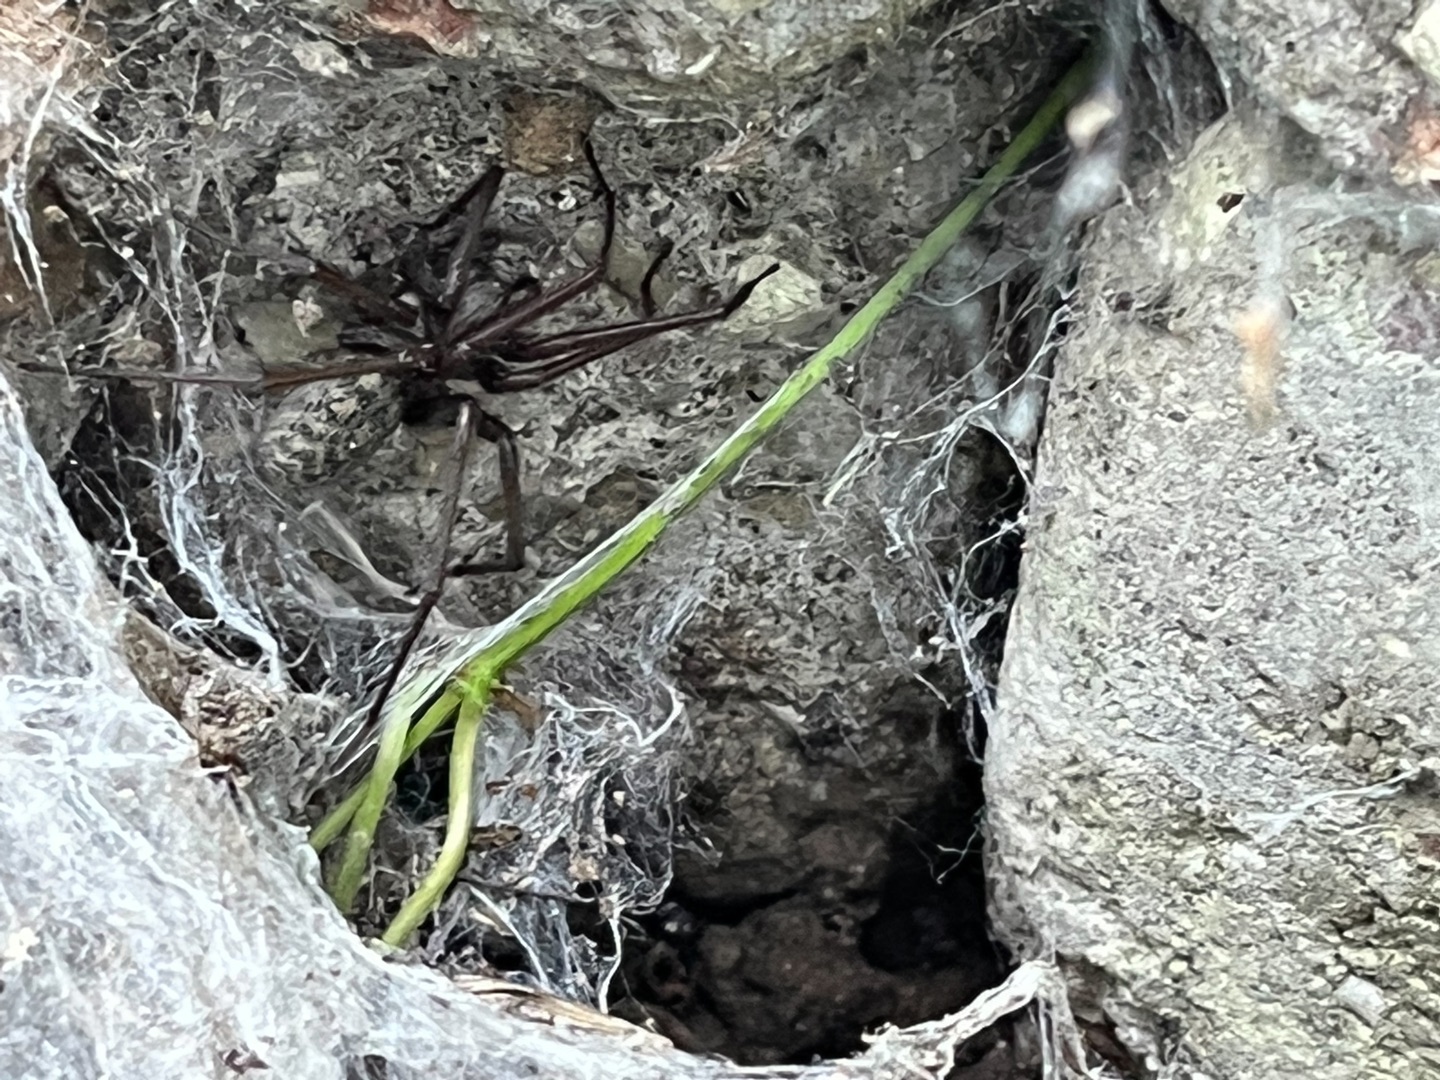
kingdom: Animalia
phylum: Arthropoda
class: Arachnida
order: Araneae
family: Agelenidae
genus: Eratigena
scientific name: Eratigena atrica
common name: Stor husedderkop
